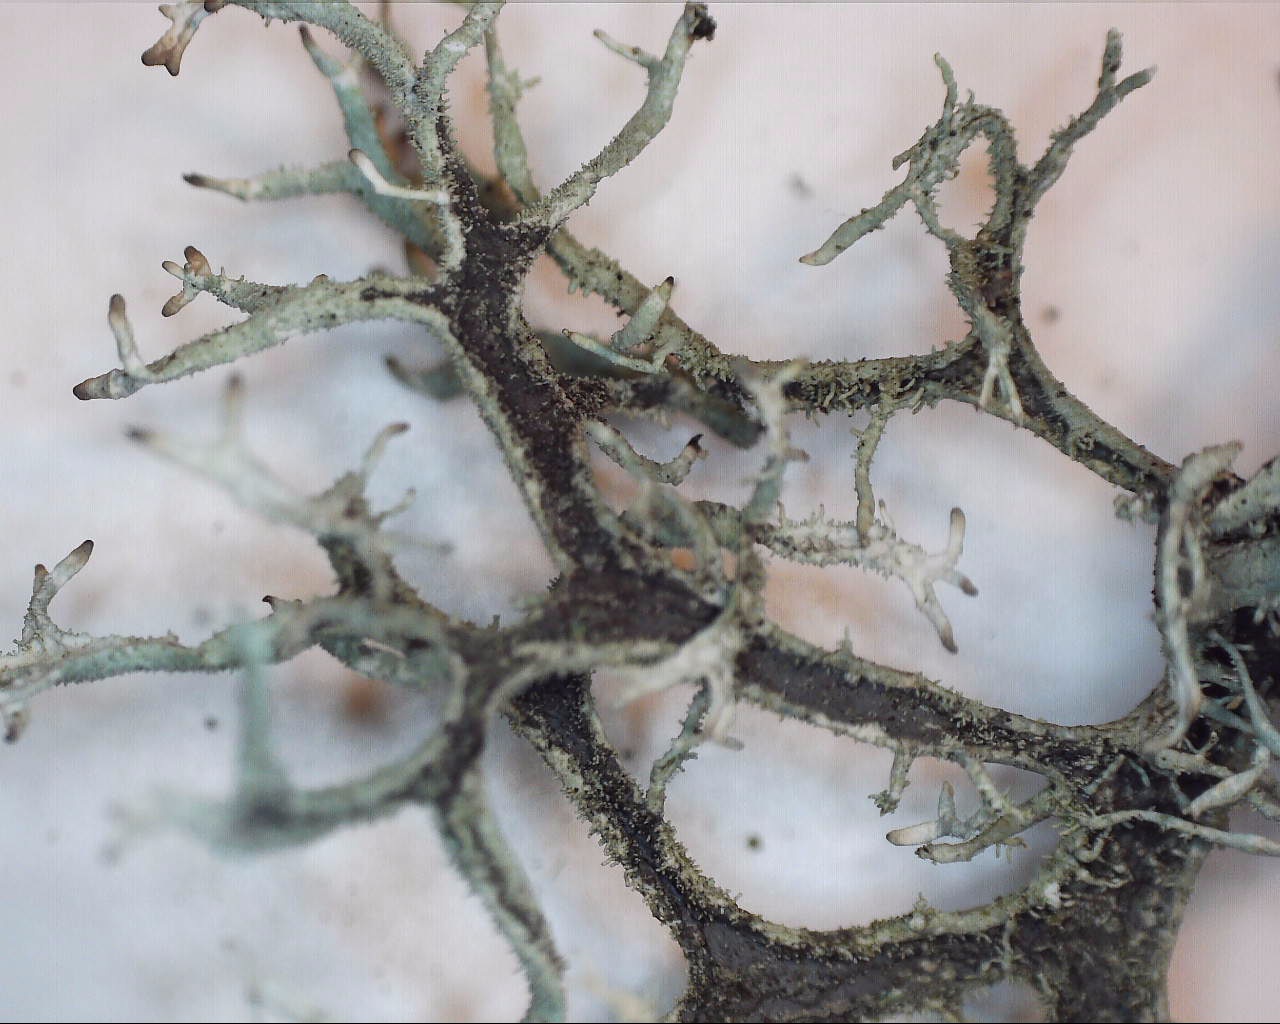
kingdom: Fungi
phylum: Ascomycota
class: Lecanoromycetes
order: Lecanorales
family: Parmeliaceae
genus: Pseudevernia
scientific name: Pseudevernia furfuracea
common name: grå fyrrelav
